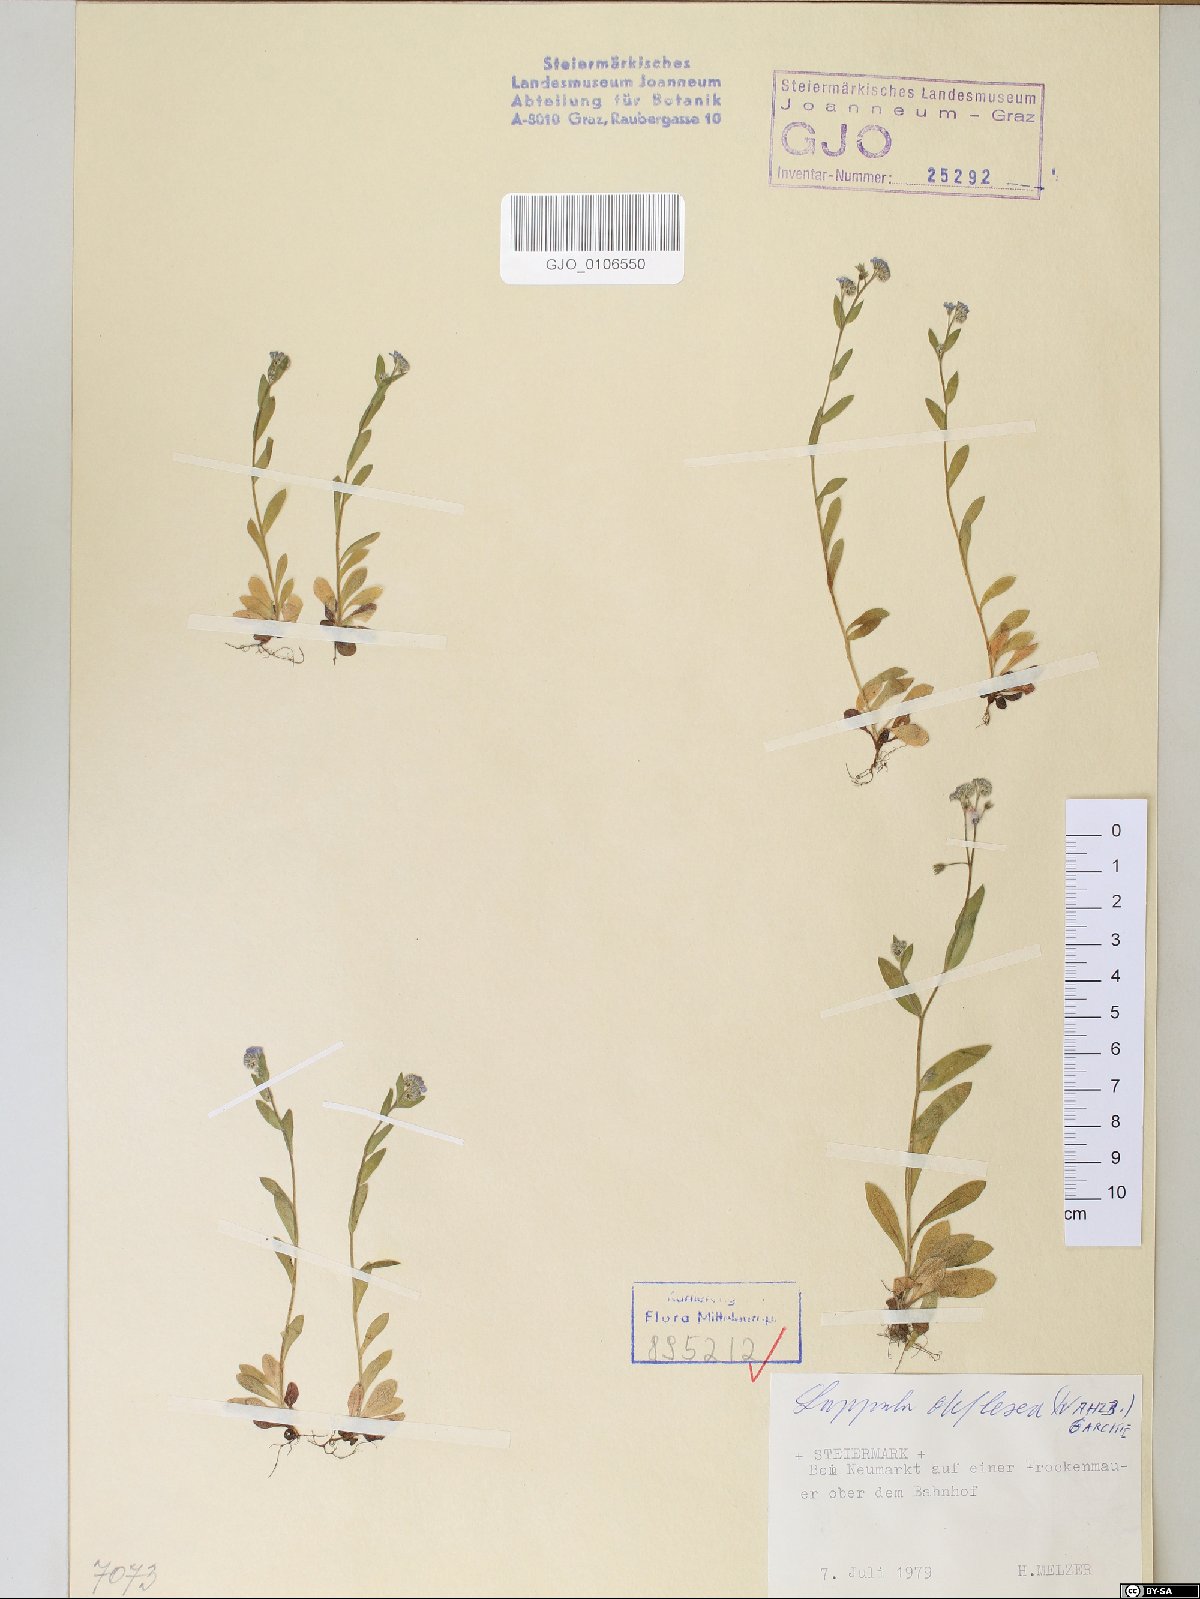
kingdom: Plantae
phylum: Tracheophyta
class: Magnoliopsida
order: Boraginales
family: Boraginaceae
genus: Hackelia
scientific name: Hackelia deflexa
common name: Nodding stickseed
